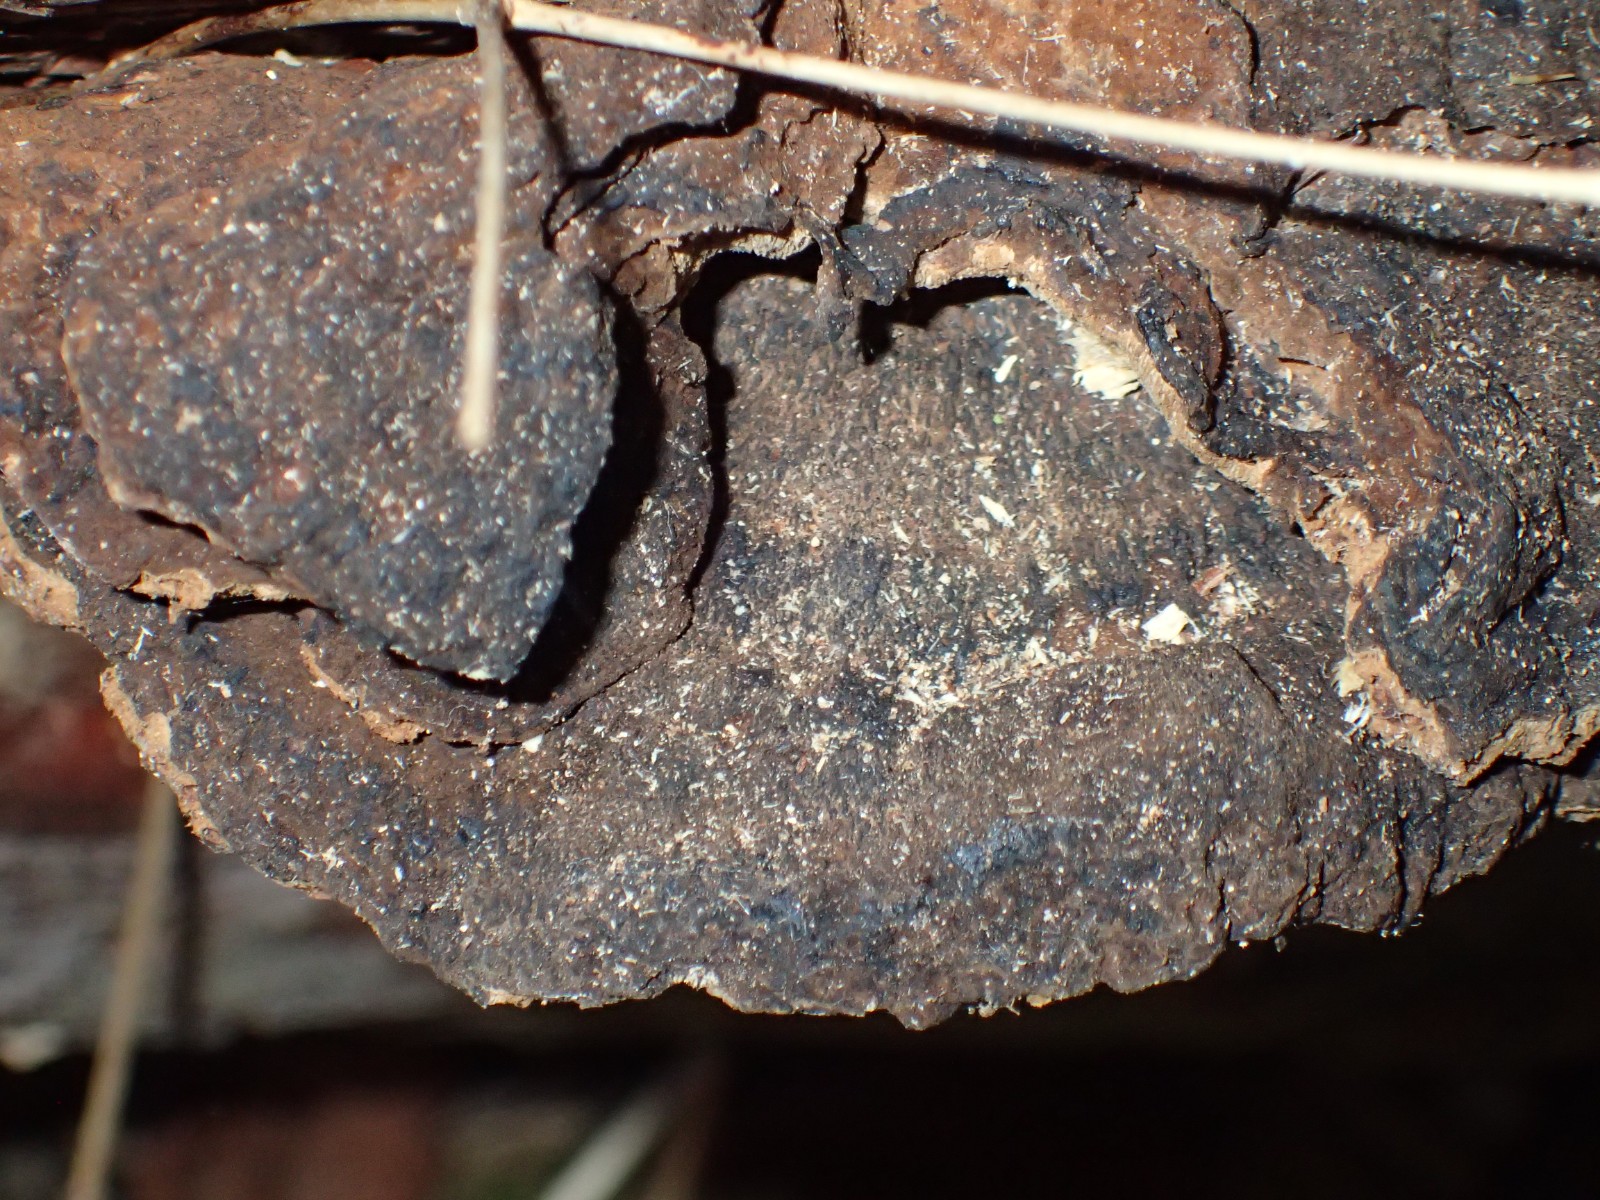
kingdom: Fungi
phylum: Basidiomycota
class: Agaricomycetes
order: Polyporales
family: Ischnodermataceae
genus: Ischnoderma
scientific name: Ischnoderma benzoinum
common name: gran-tjæreporesvamp
